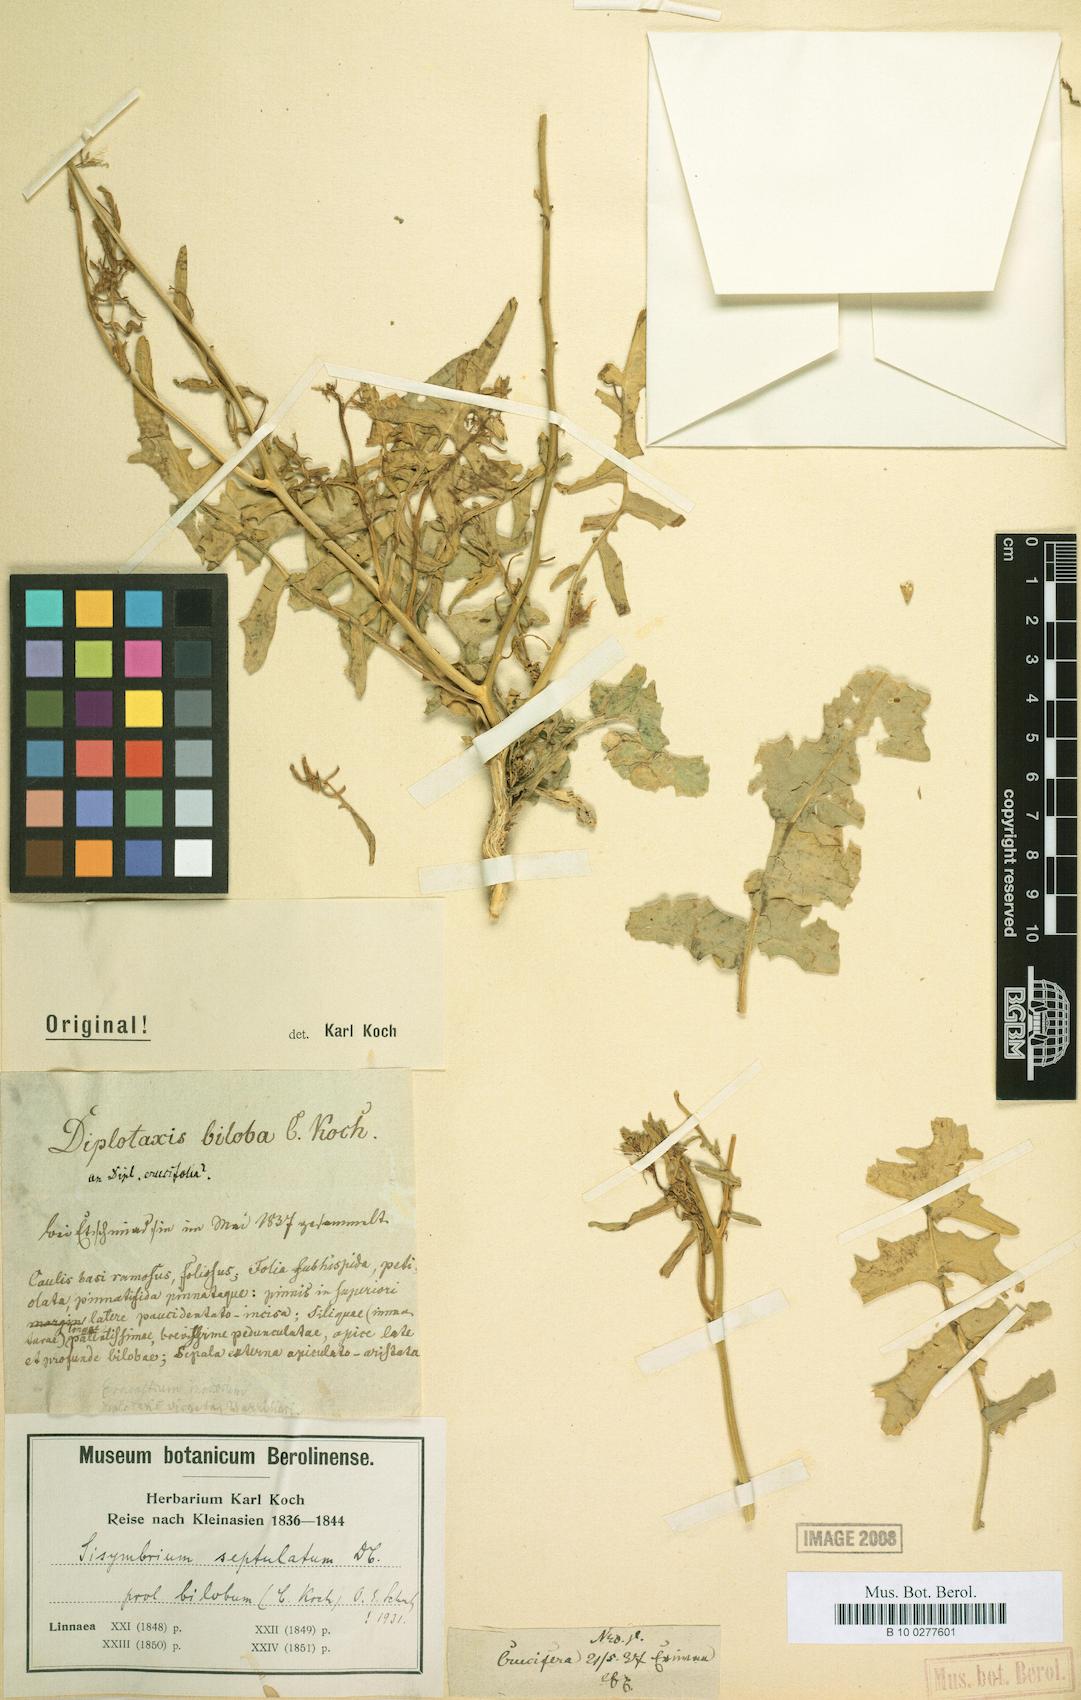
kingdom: Plantae
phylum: Tracheophyta
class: Magnoliopsida
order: Brassicales
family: Brassicaceae
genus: Sisymbrium
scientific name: Sisymbrium septulatum
